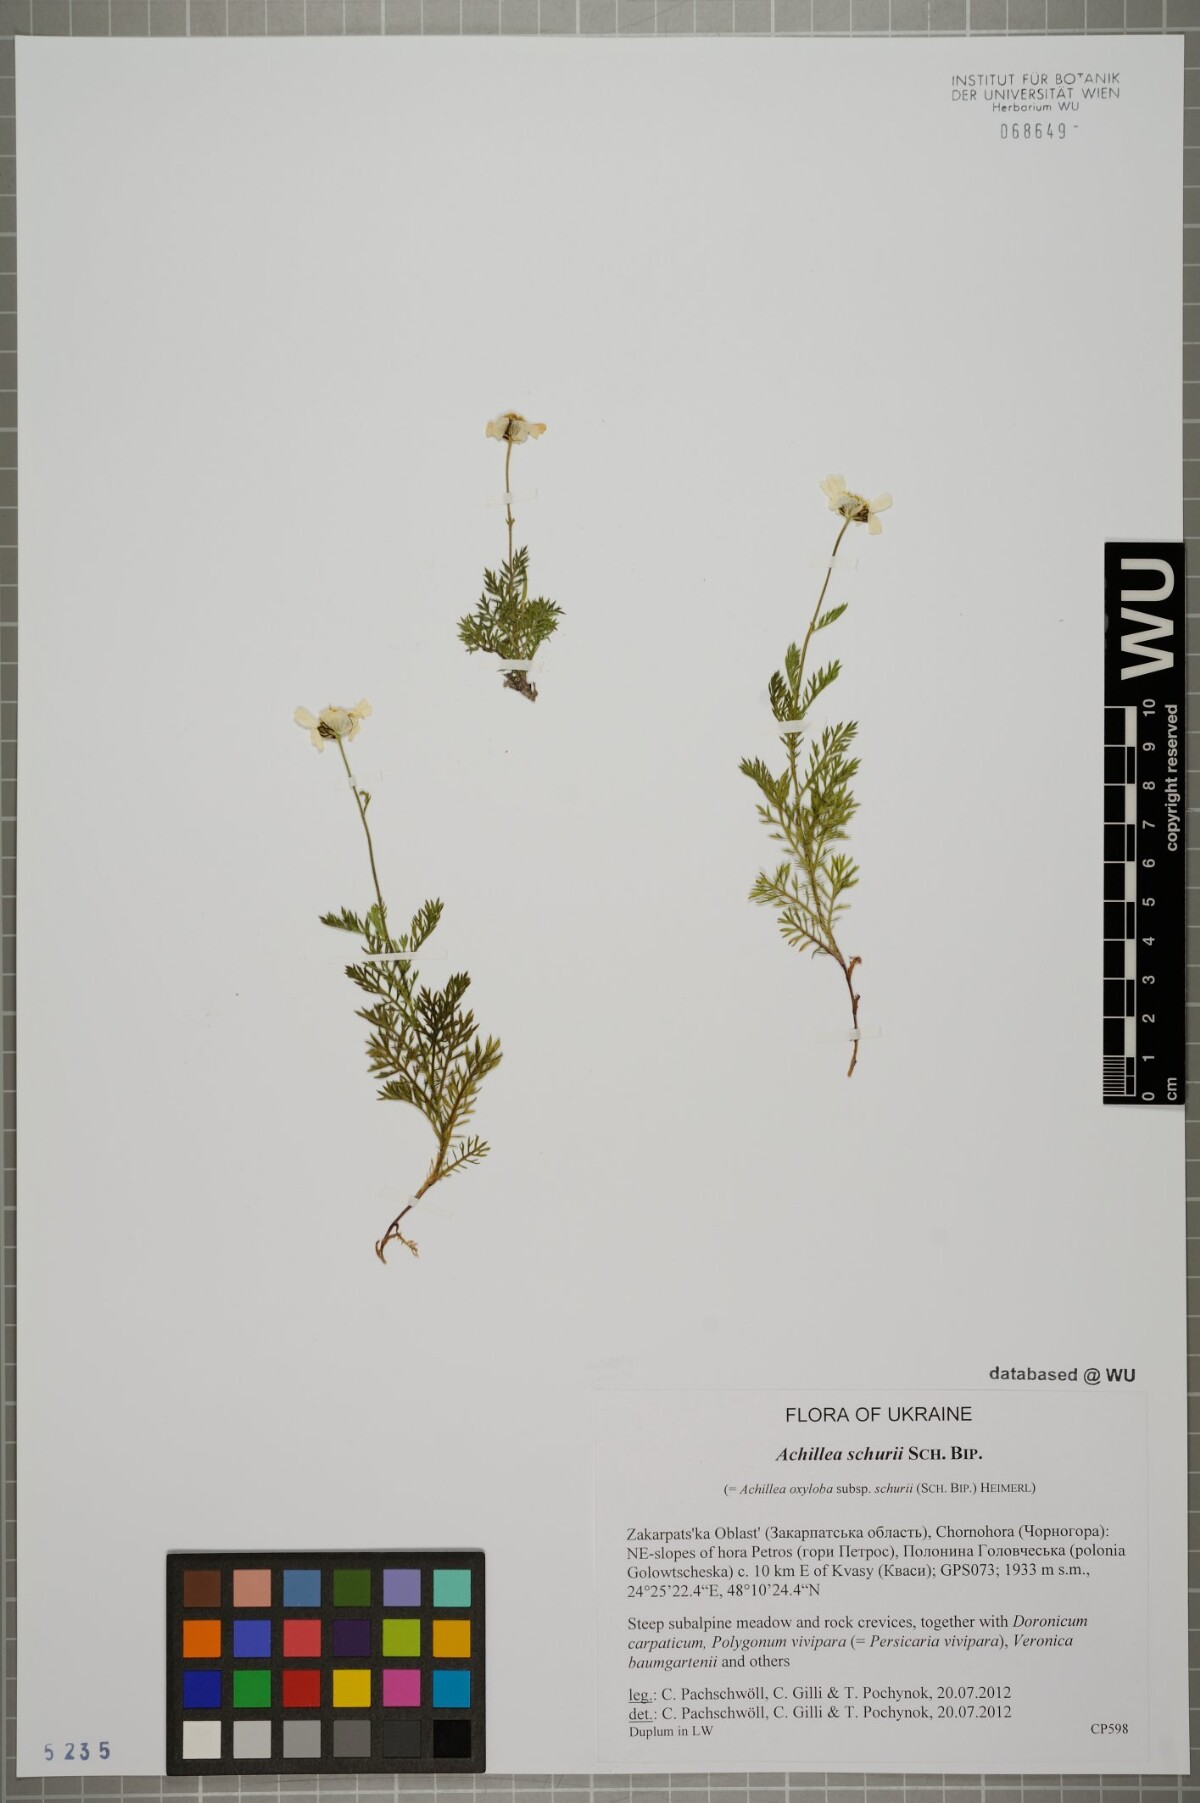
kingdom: Plantae
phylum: Tracheophyta
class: Magnoliopsida
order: Asterales
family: Asteraceae
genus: Achillea
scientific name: Achillea oxyloba
